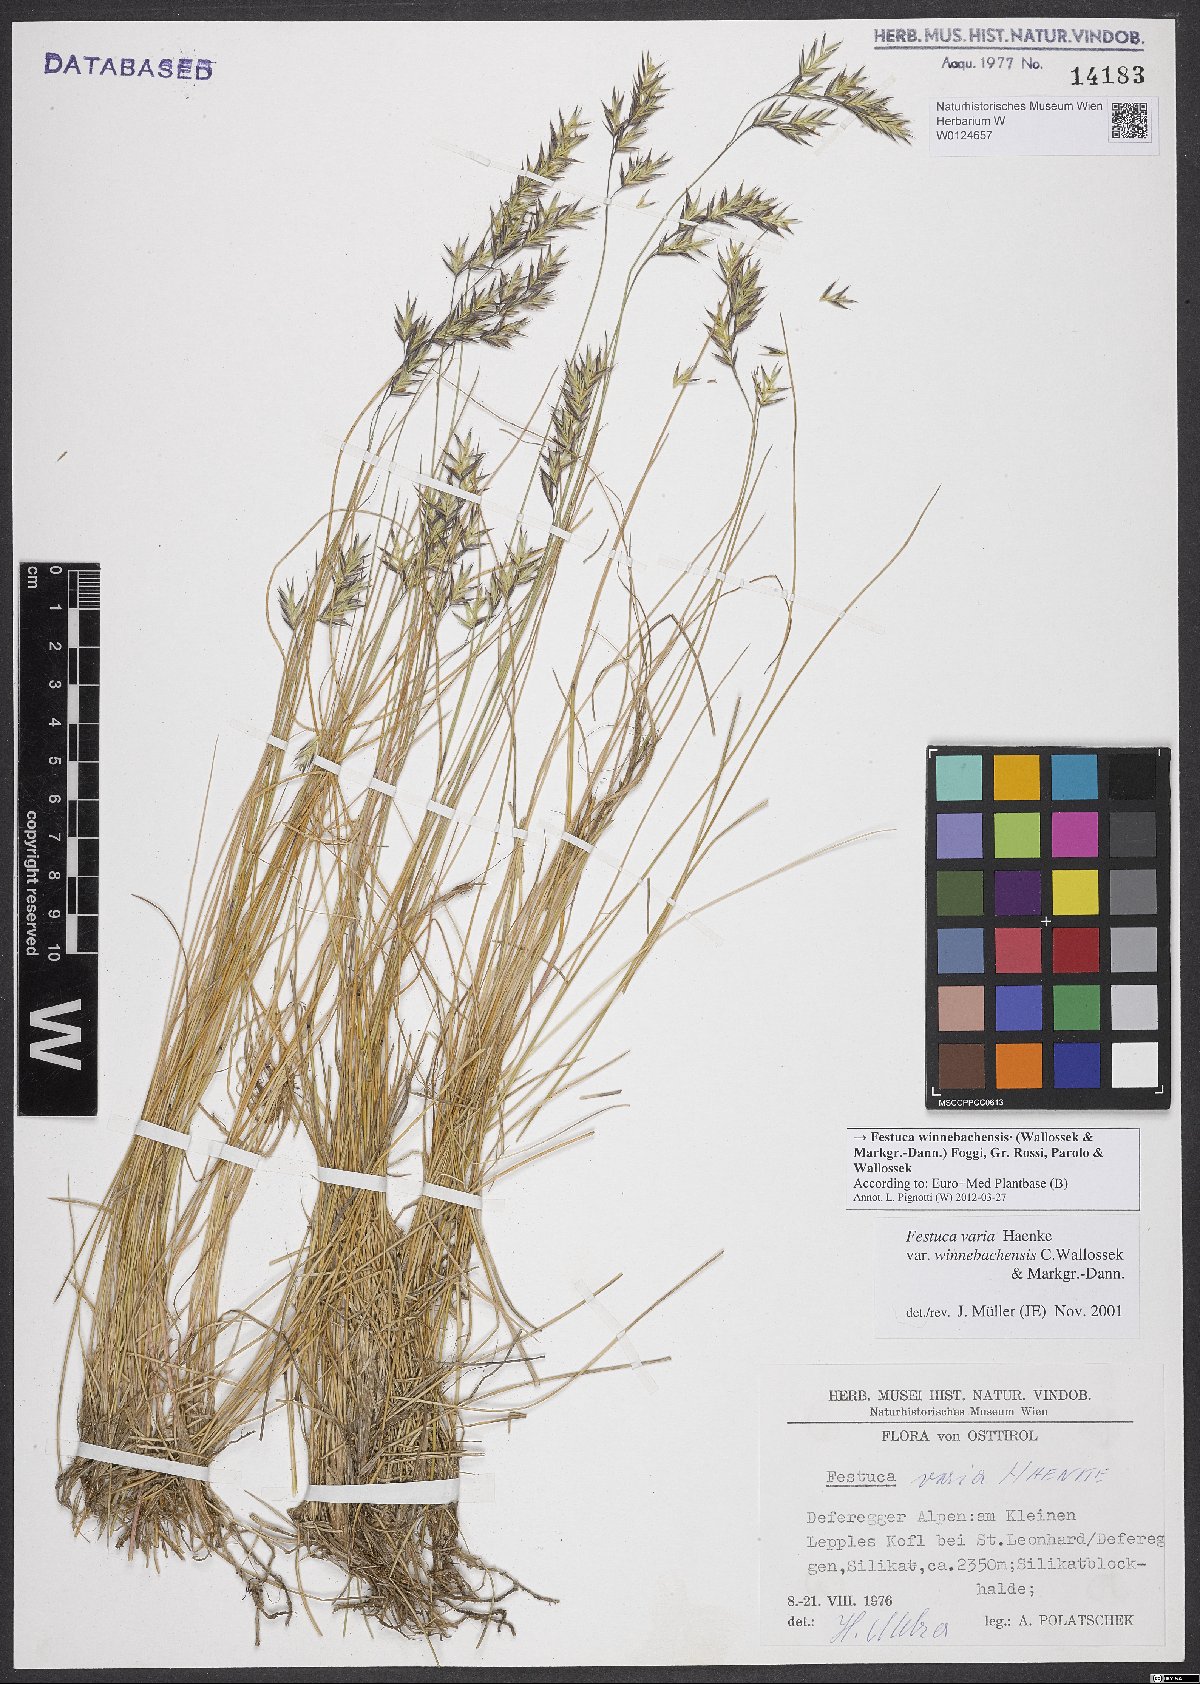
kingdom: Plantae
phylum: Tracheophyta
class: Liliopsida
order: Poales
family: Poaceae
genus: Festuca
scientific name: Festuca pseudovaria
